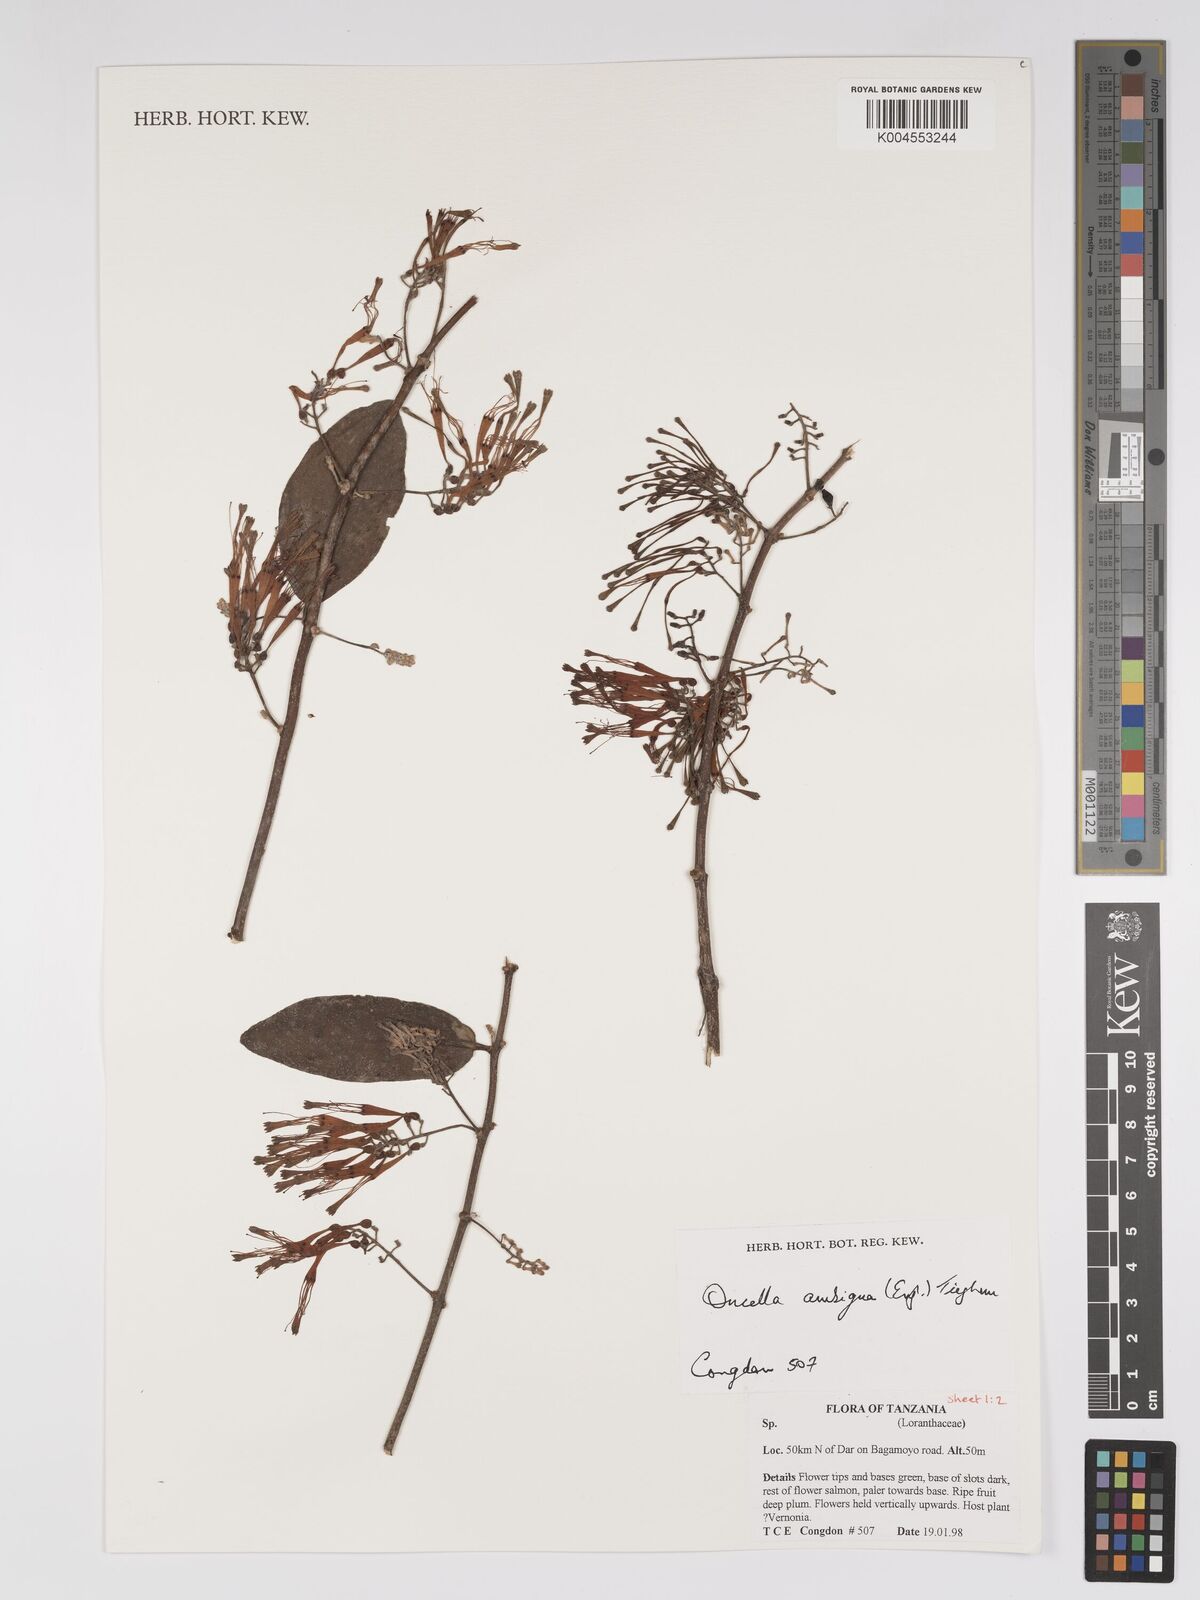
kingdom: Plantae
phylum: Tracheophyta
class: Magnoliopsida
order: Santalales
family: Loranthaceae
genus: Oncella
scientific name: Oncella ambigua
